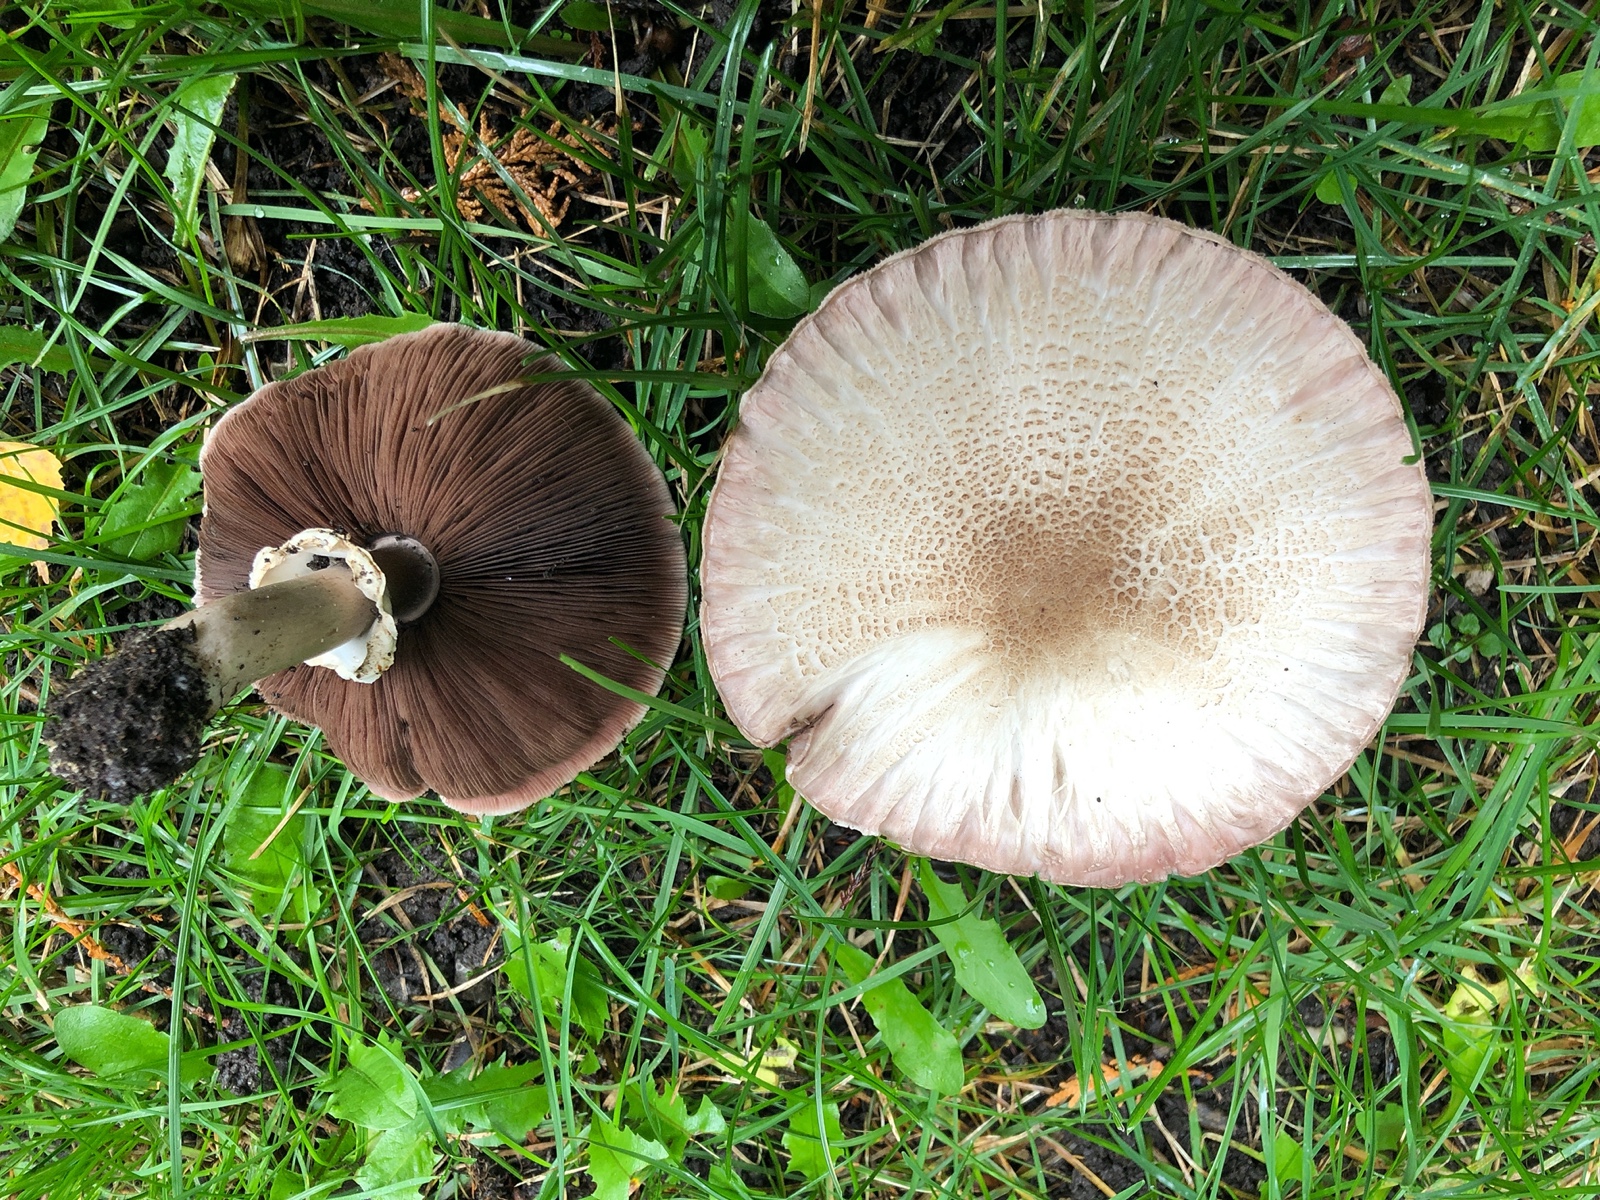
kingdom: Fungi
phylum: Basidiomycota
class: Agaricomycetes
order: Agaricales
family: Agaricaceae
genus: Agaricus
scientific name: Agaricus xanthodermus
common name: karbol-champignon
